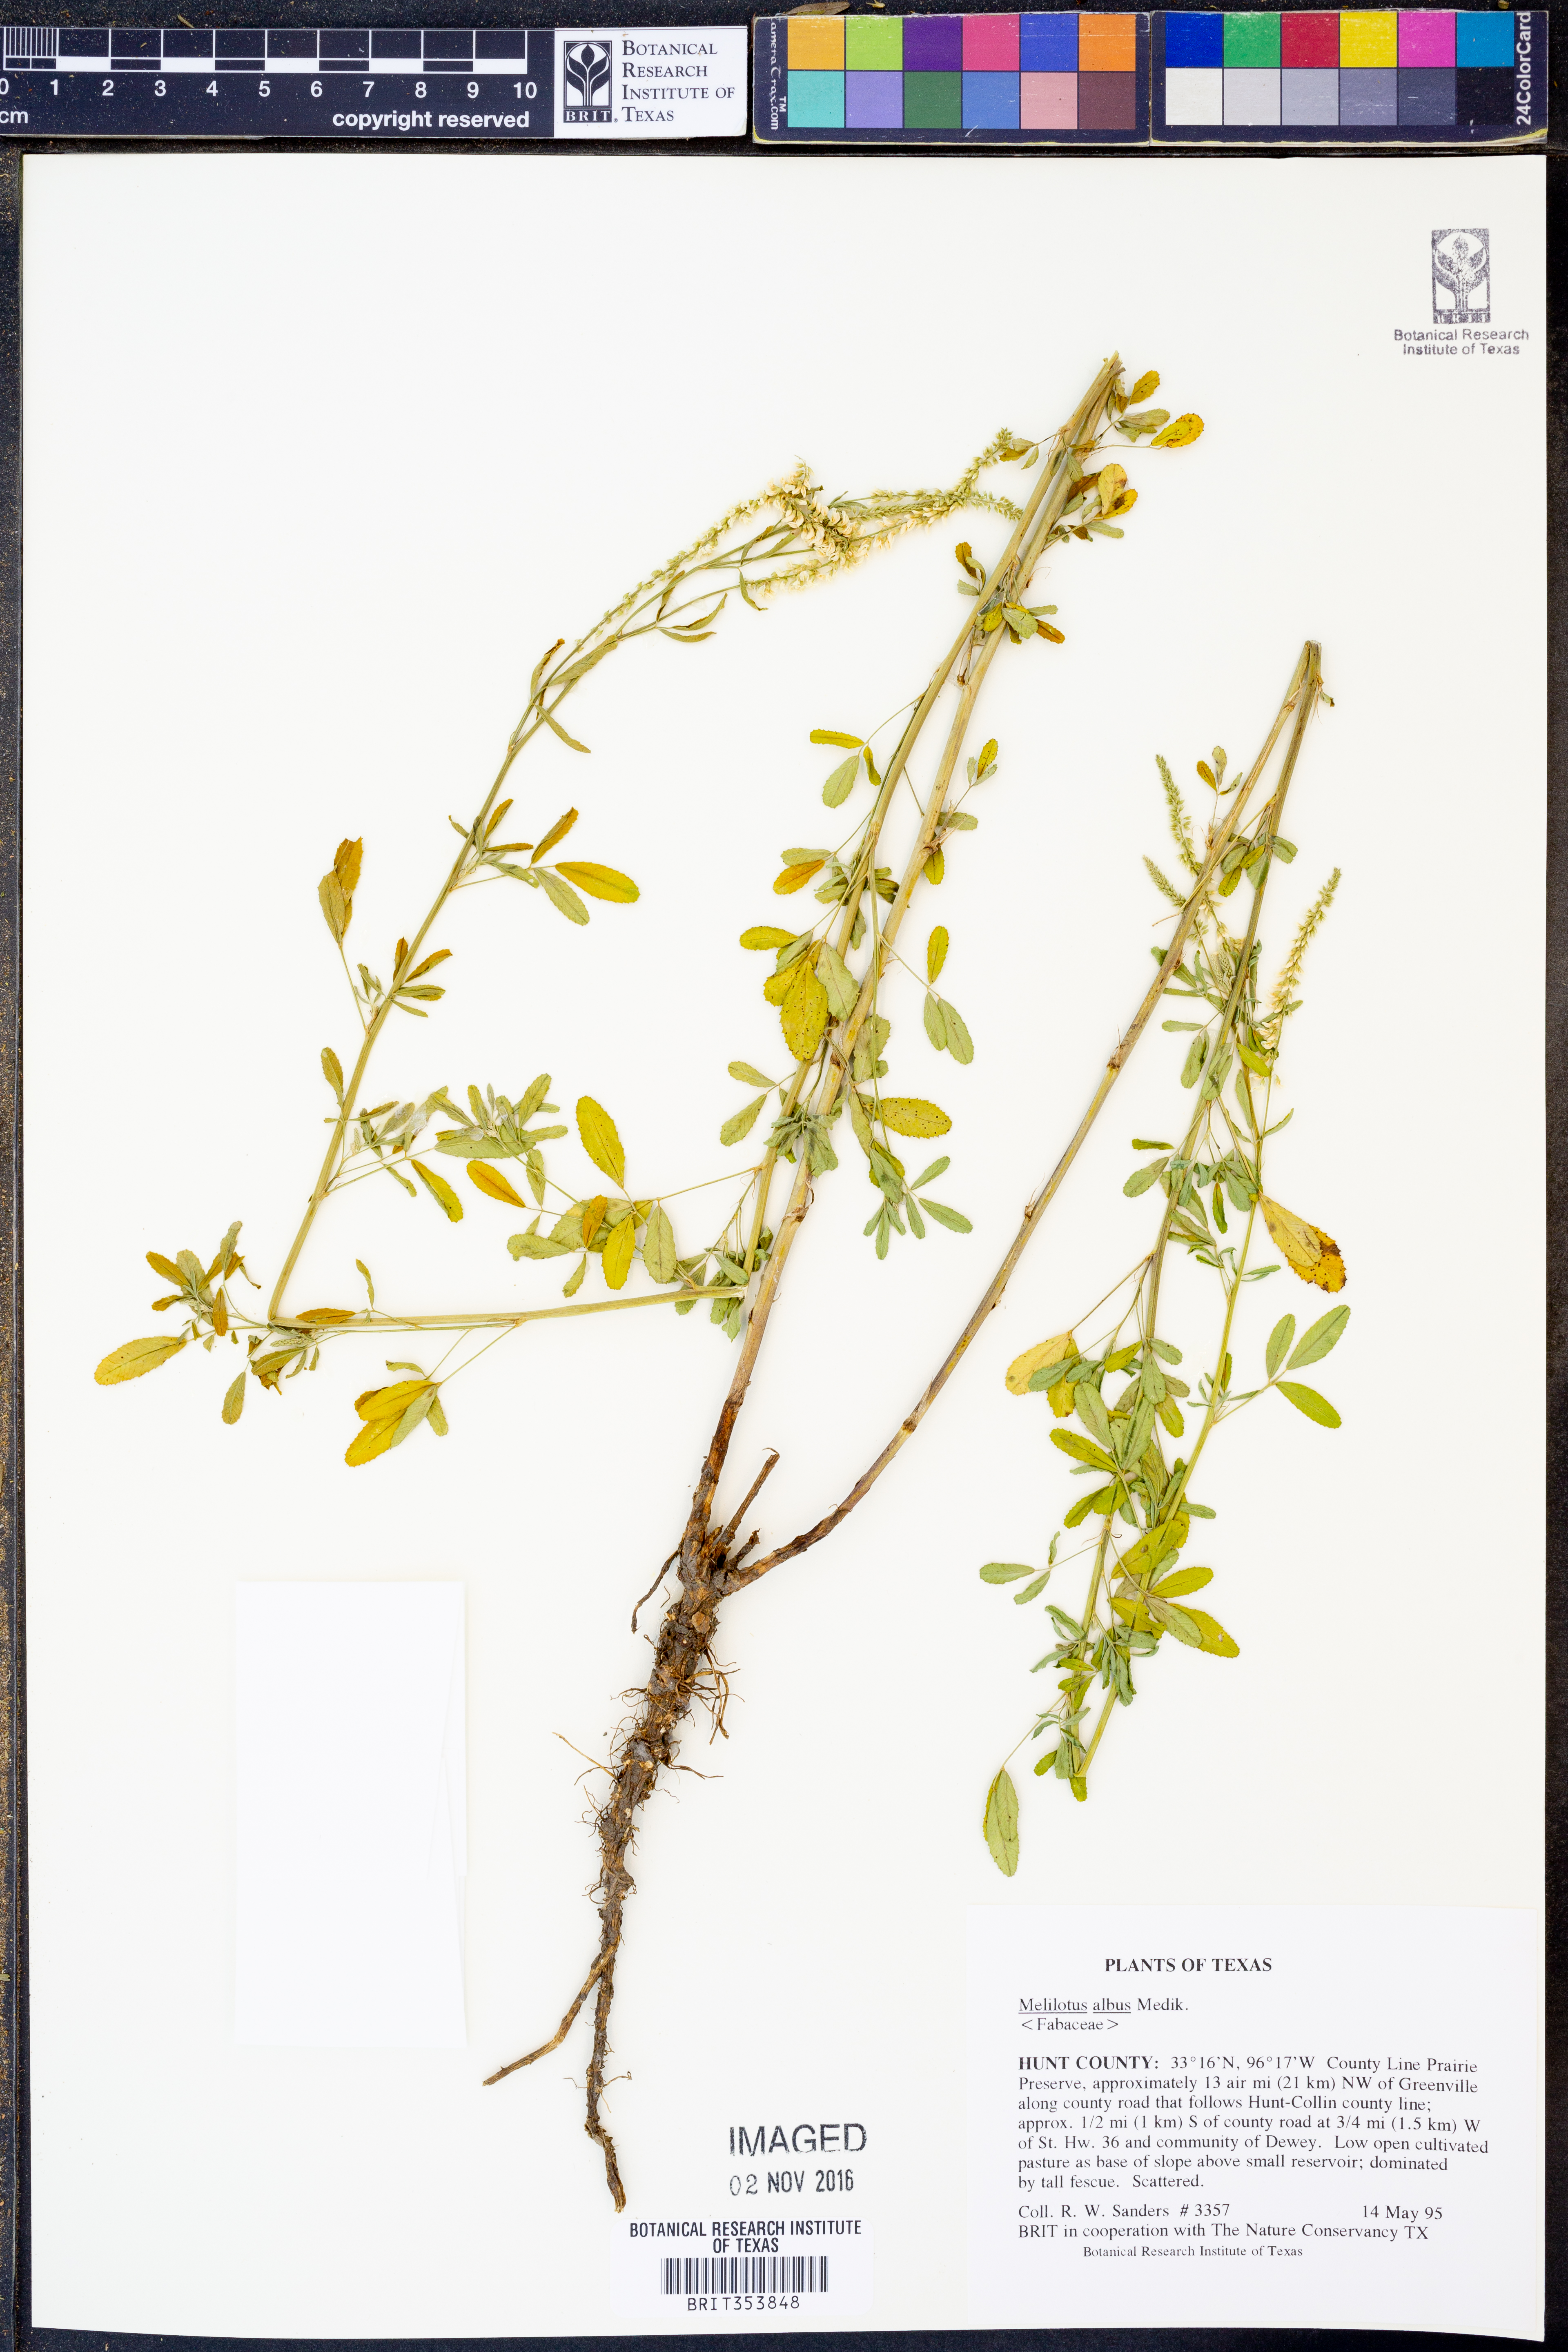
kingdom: Plantae
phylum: Tracheophyta
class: Magnoliopsida
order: Fabales
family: Fabaceae
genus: Melilotus
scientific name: Melilotus albus
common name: White melilot
